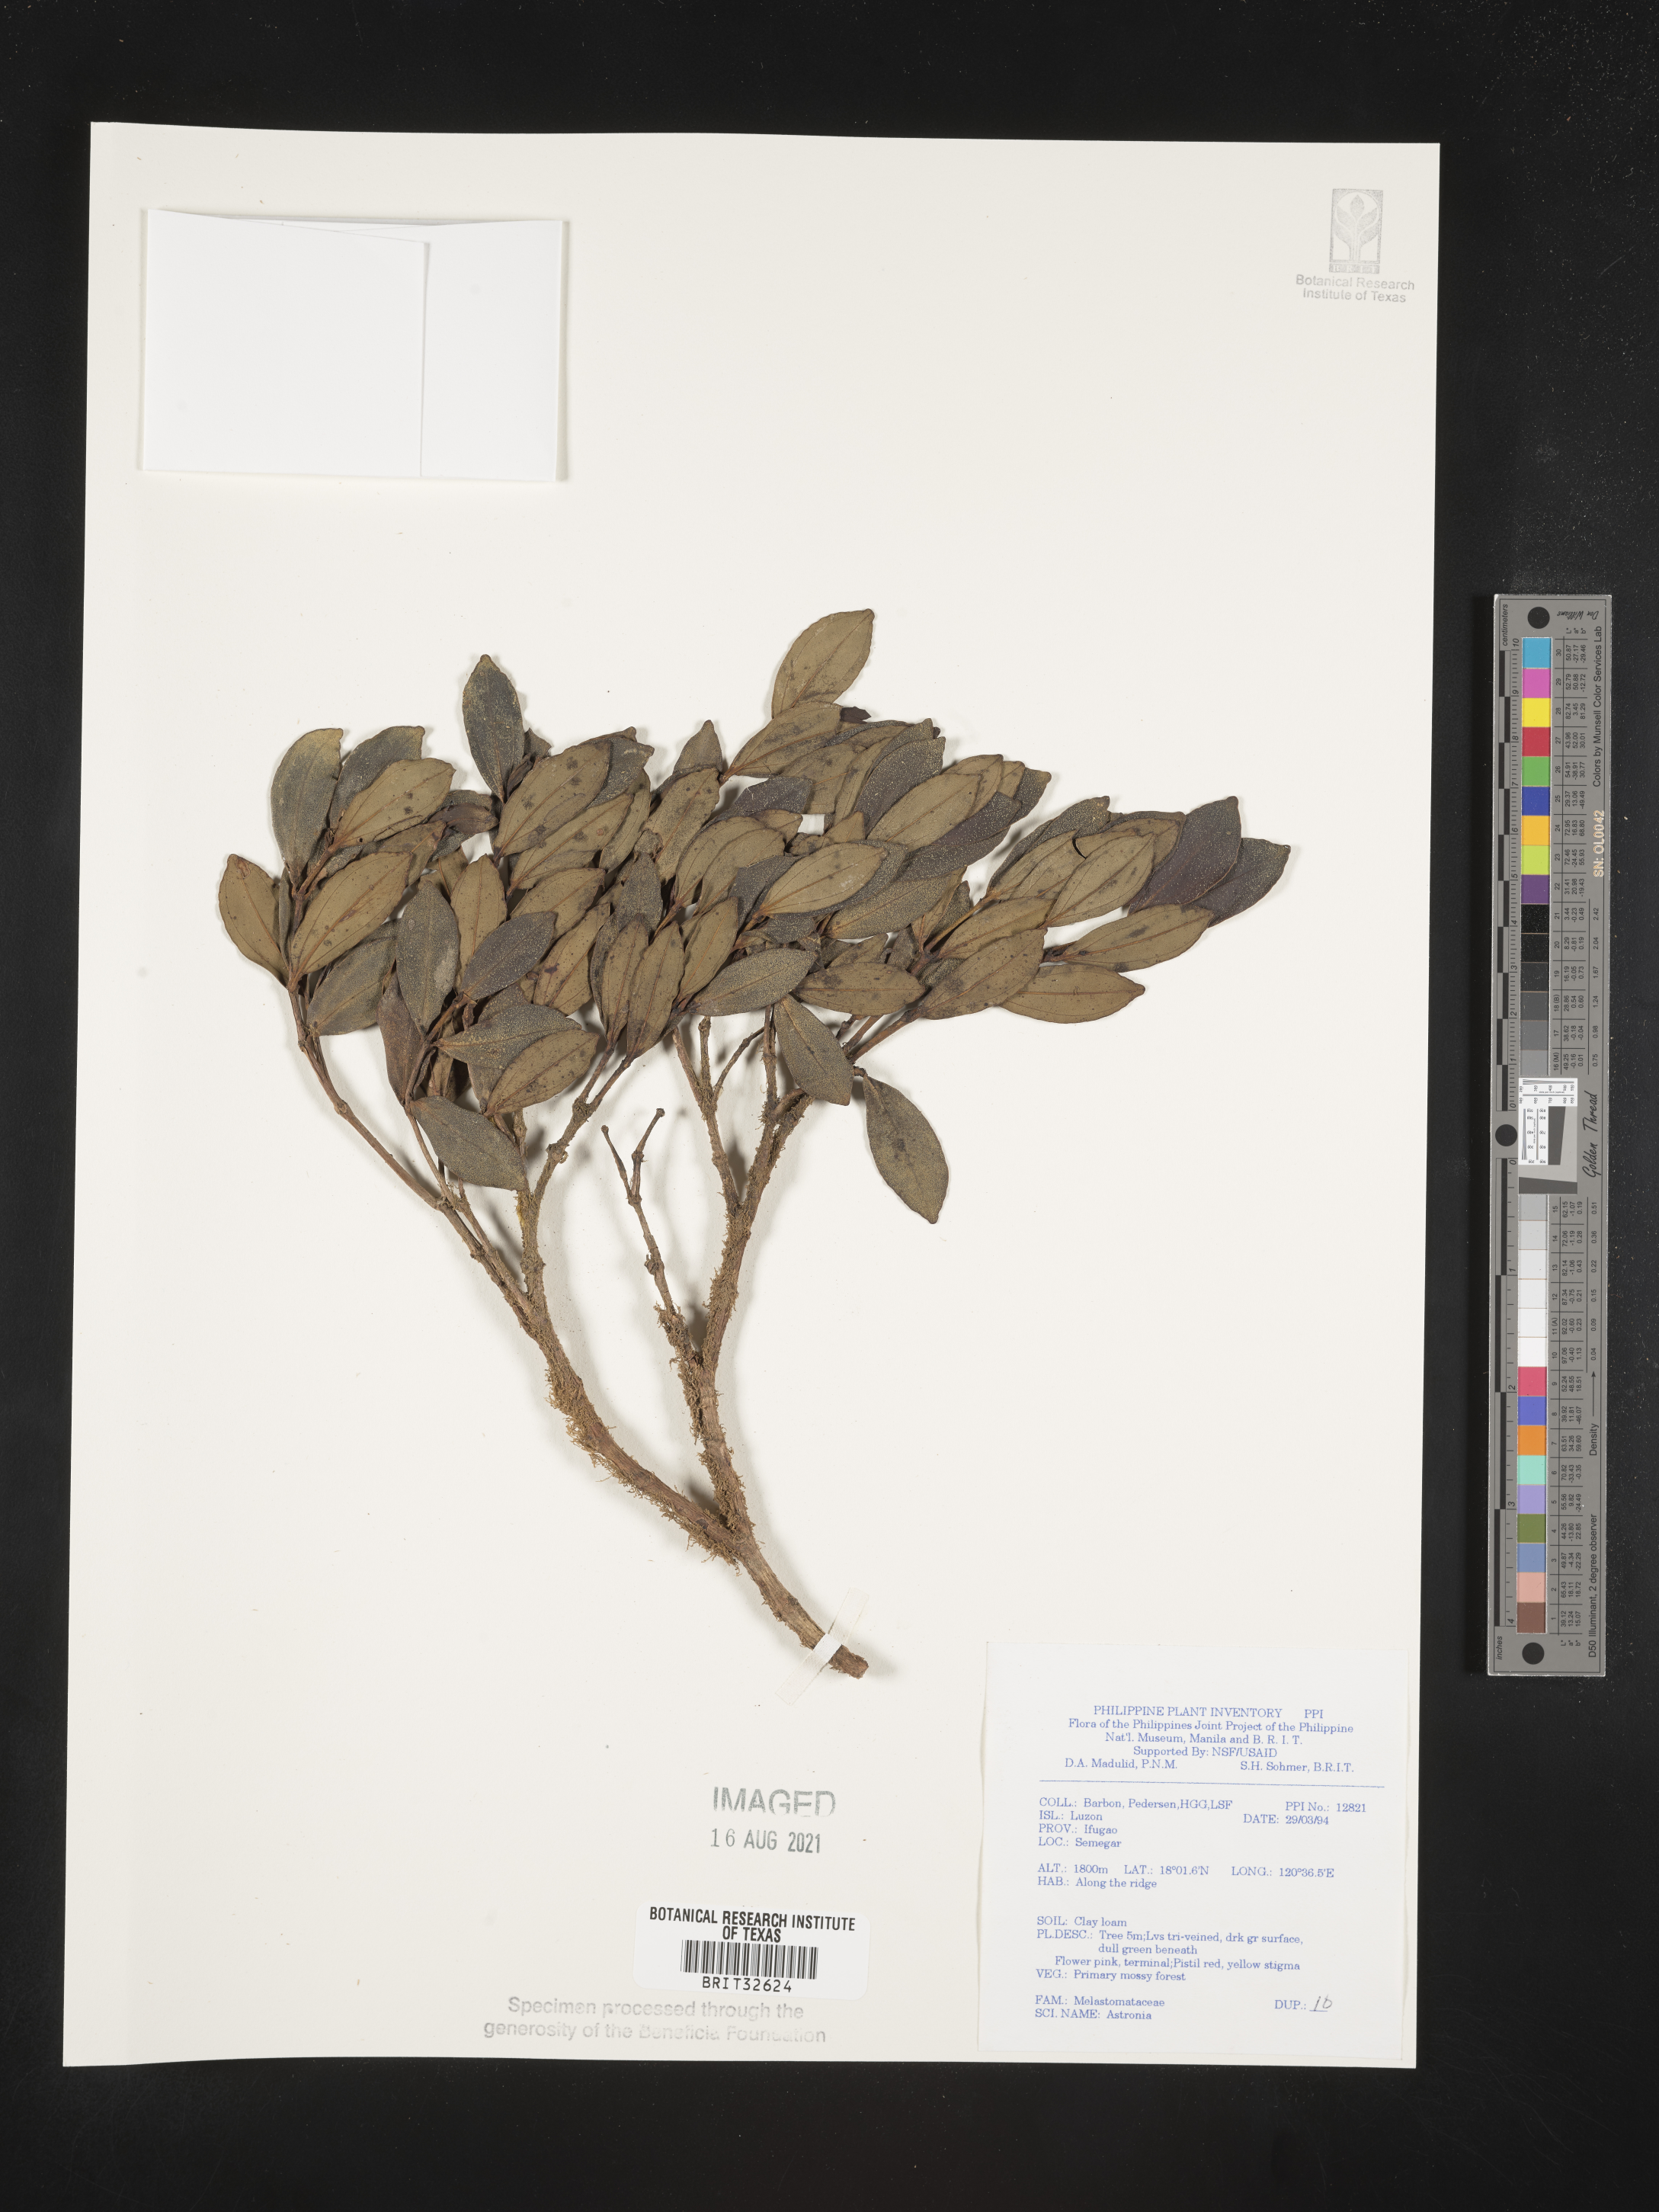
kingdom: Plantae
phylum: Tracheophyta
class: Magnoliopsida
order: Myrtales
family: Melastomataceae
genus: Astronia
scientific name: Astronia
